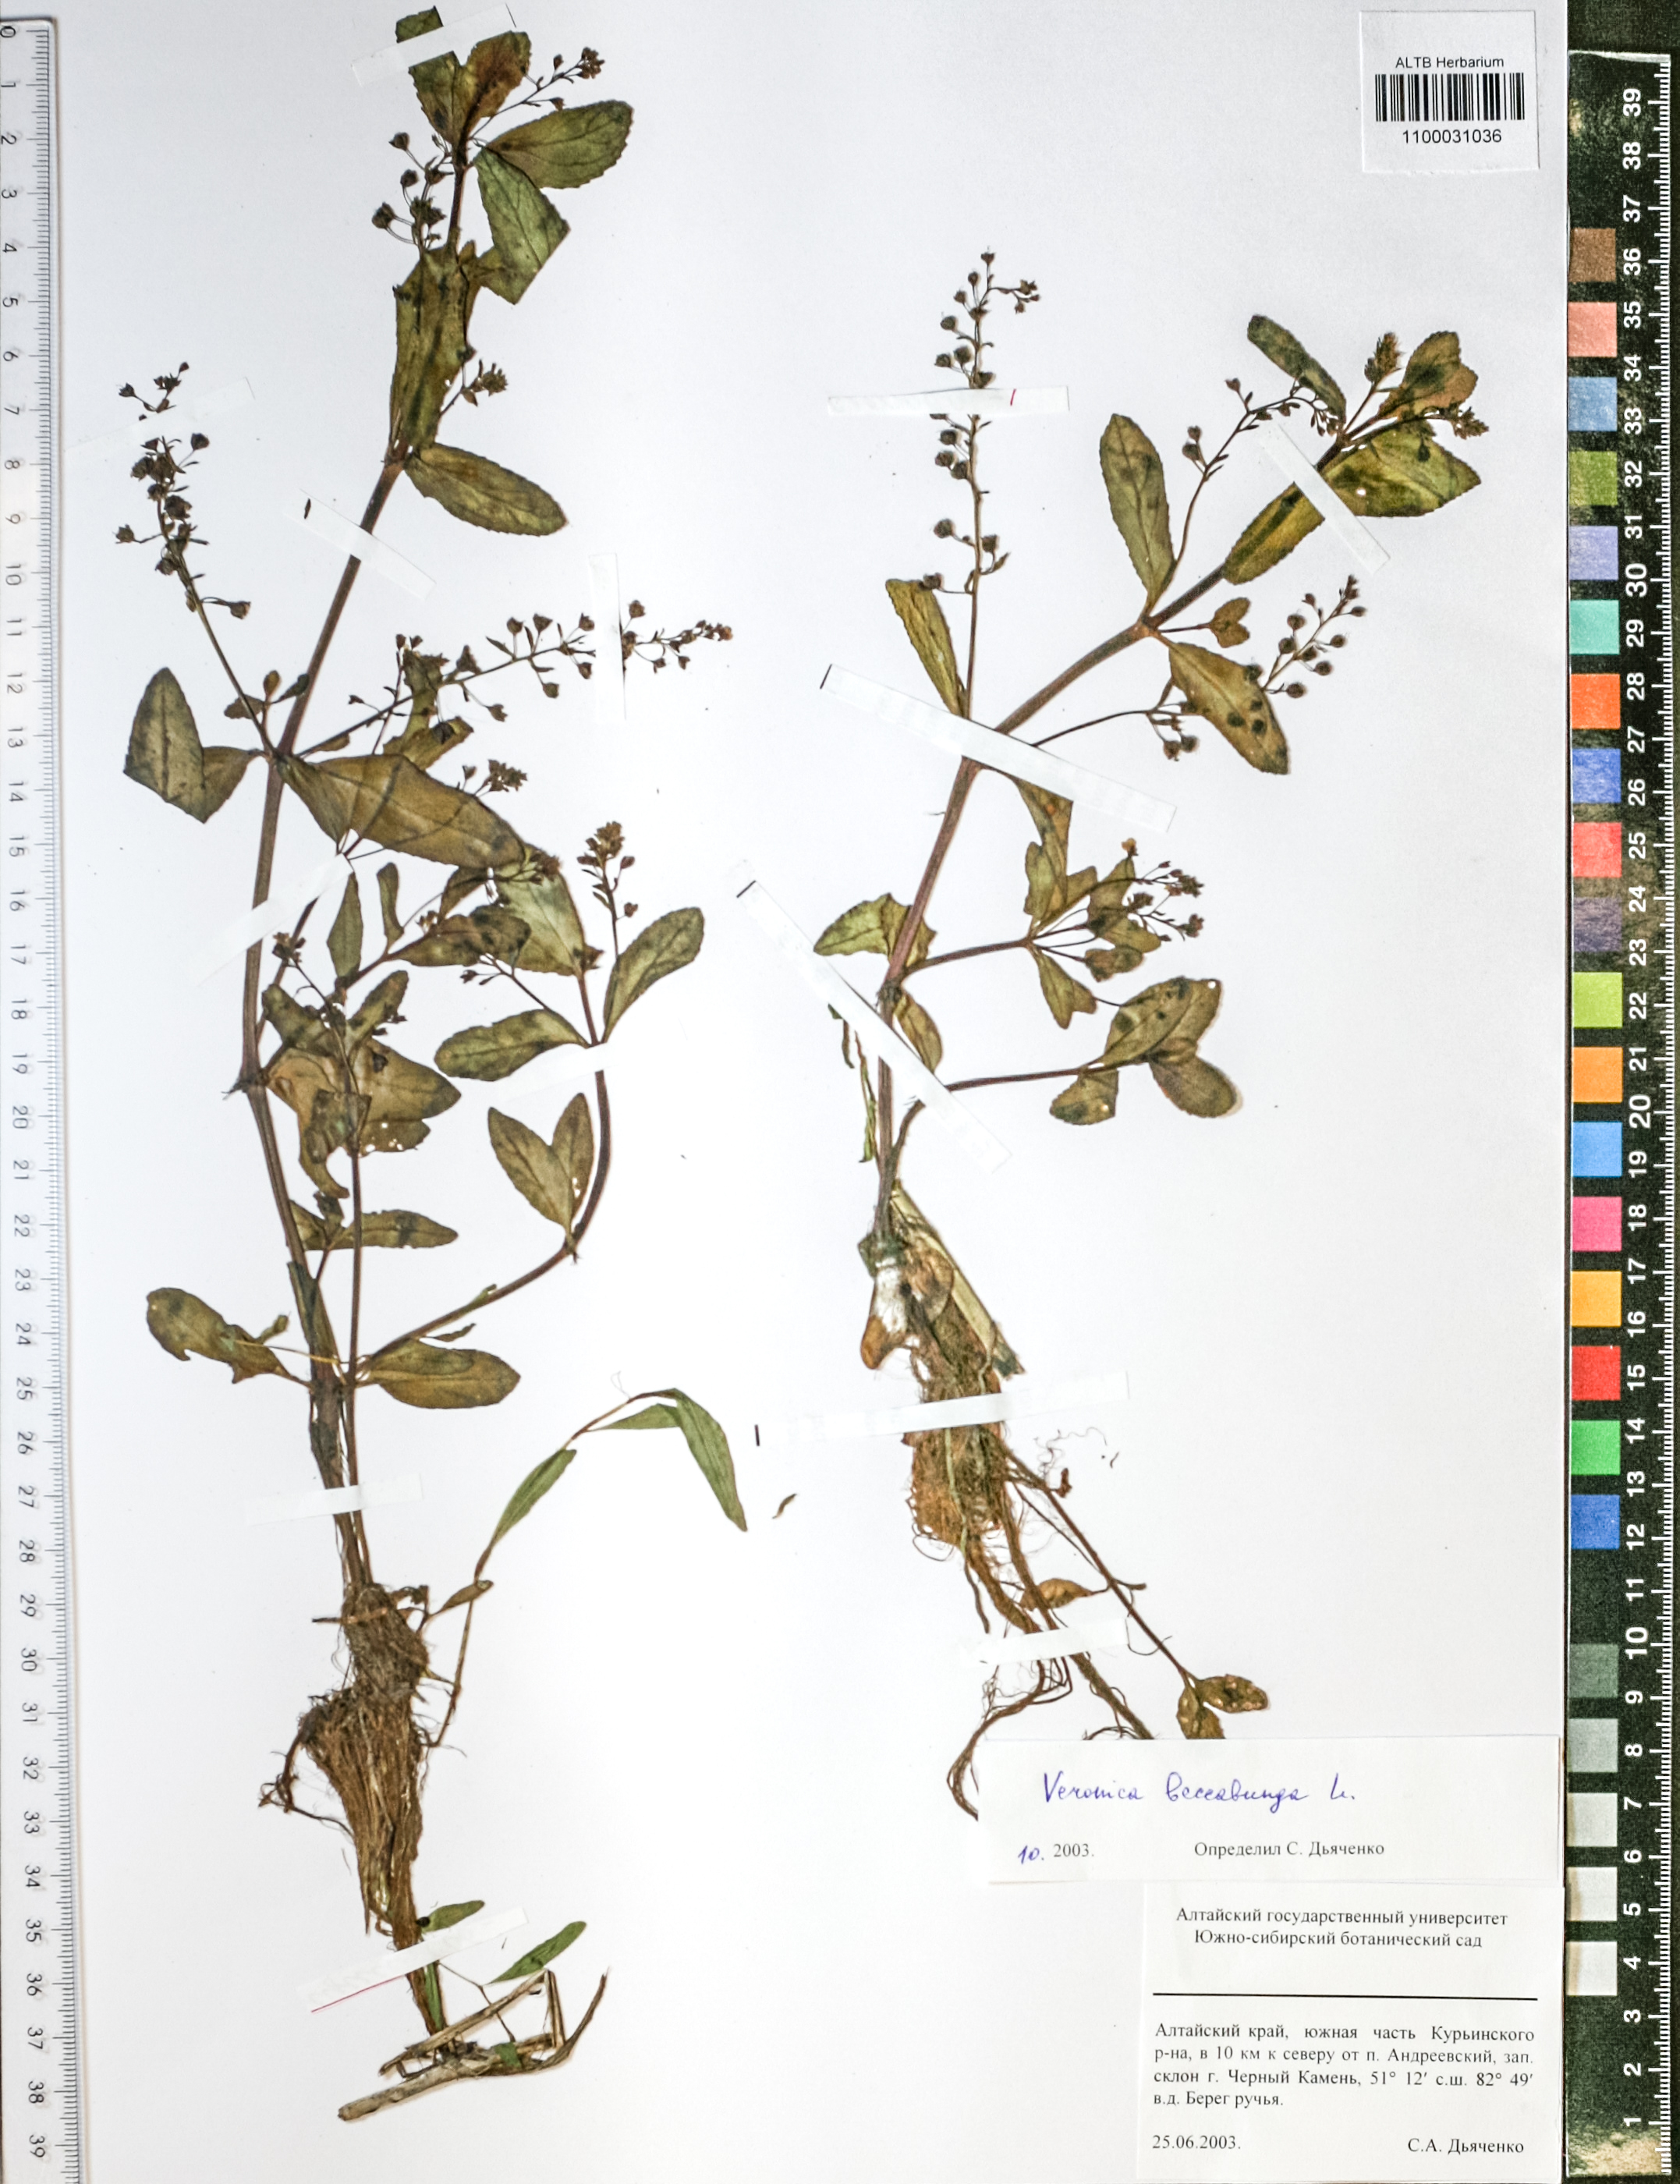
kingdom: Plantae
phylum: Tracheophyta
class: Magnoliopsida
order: Lamiales
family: Plantaginaceae
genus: Veronica
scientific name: Veronica beccabunga
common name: Brooklime
